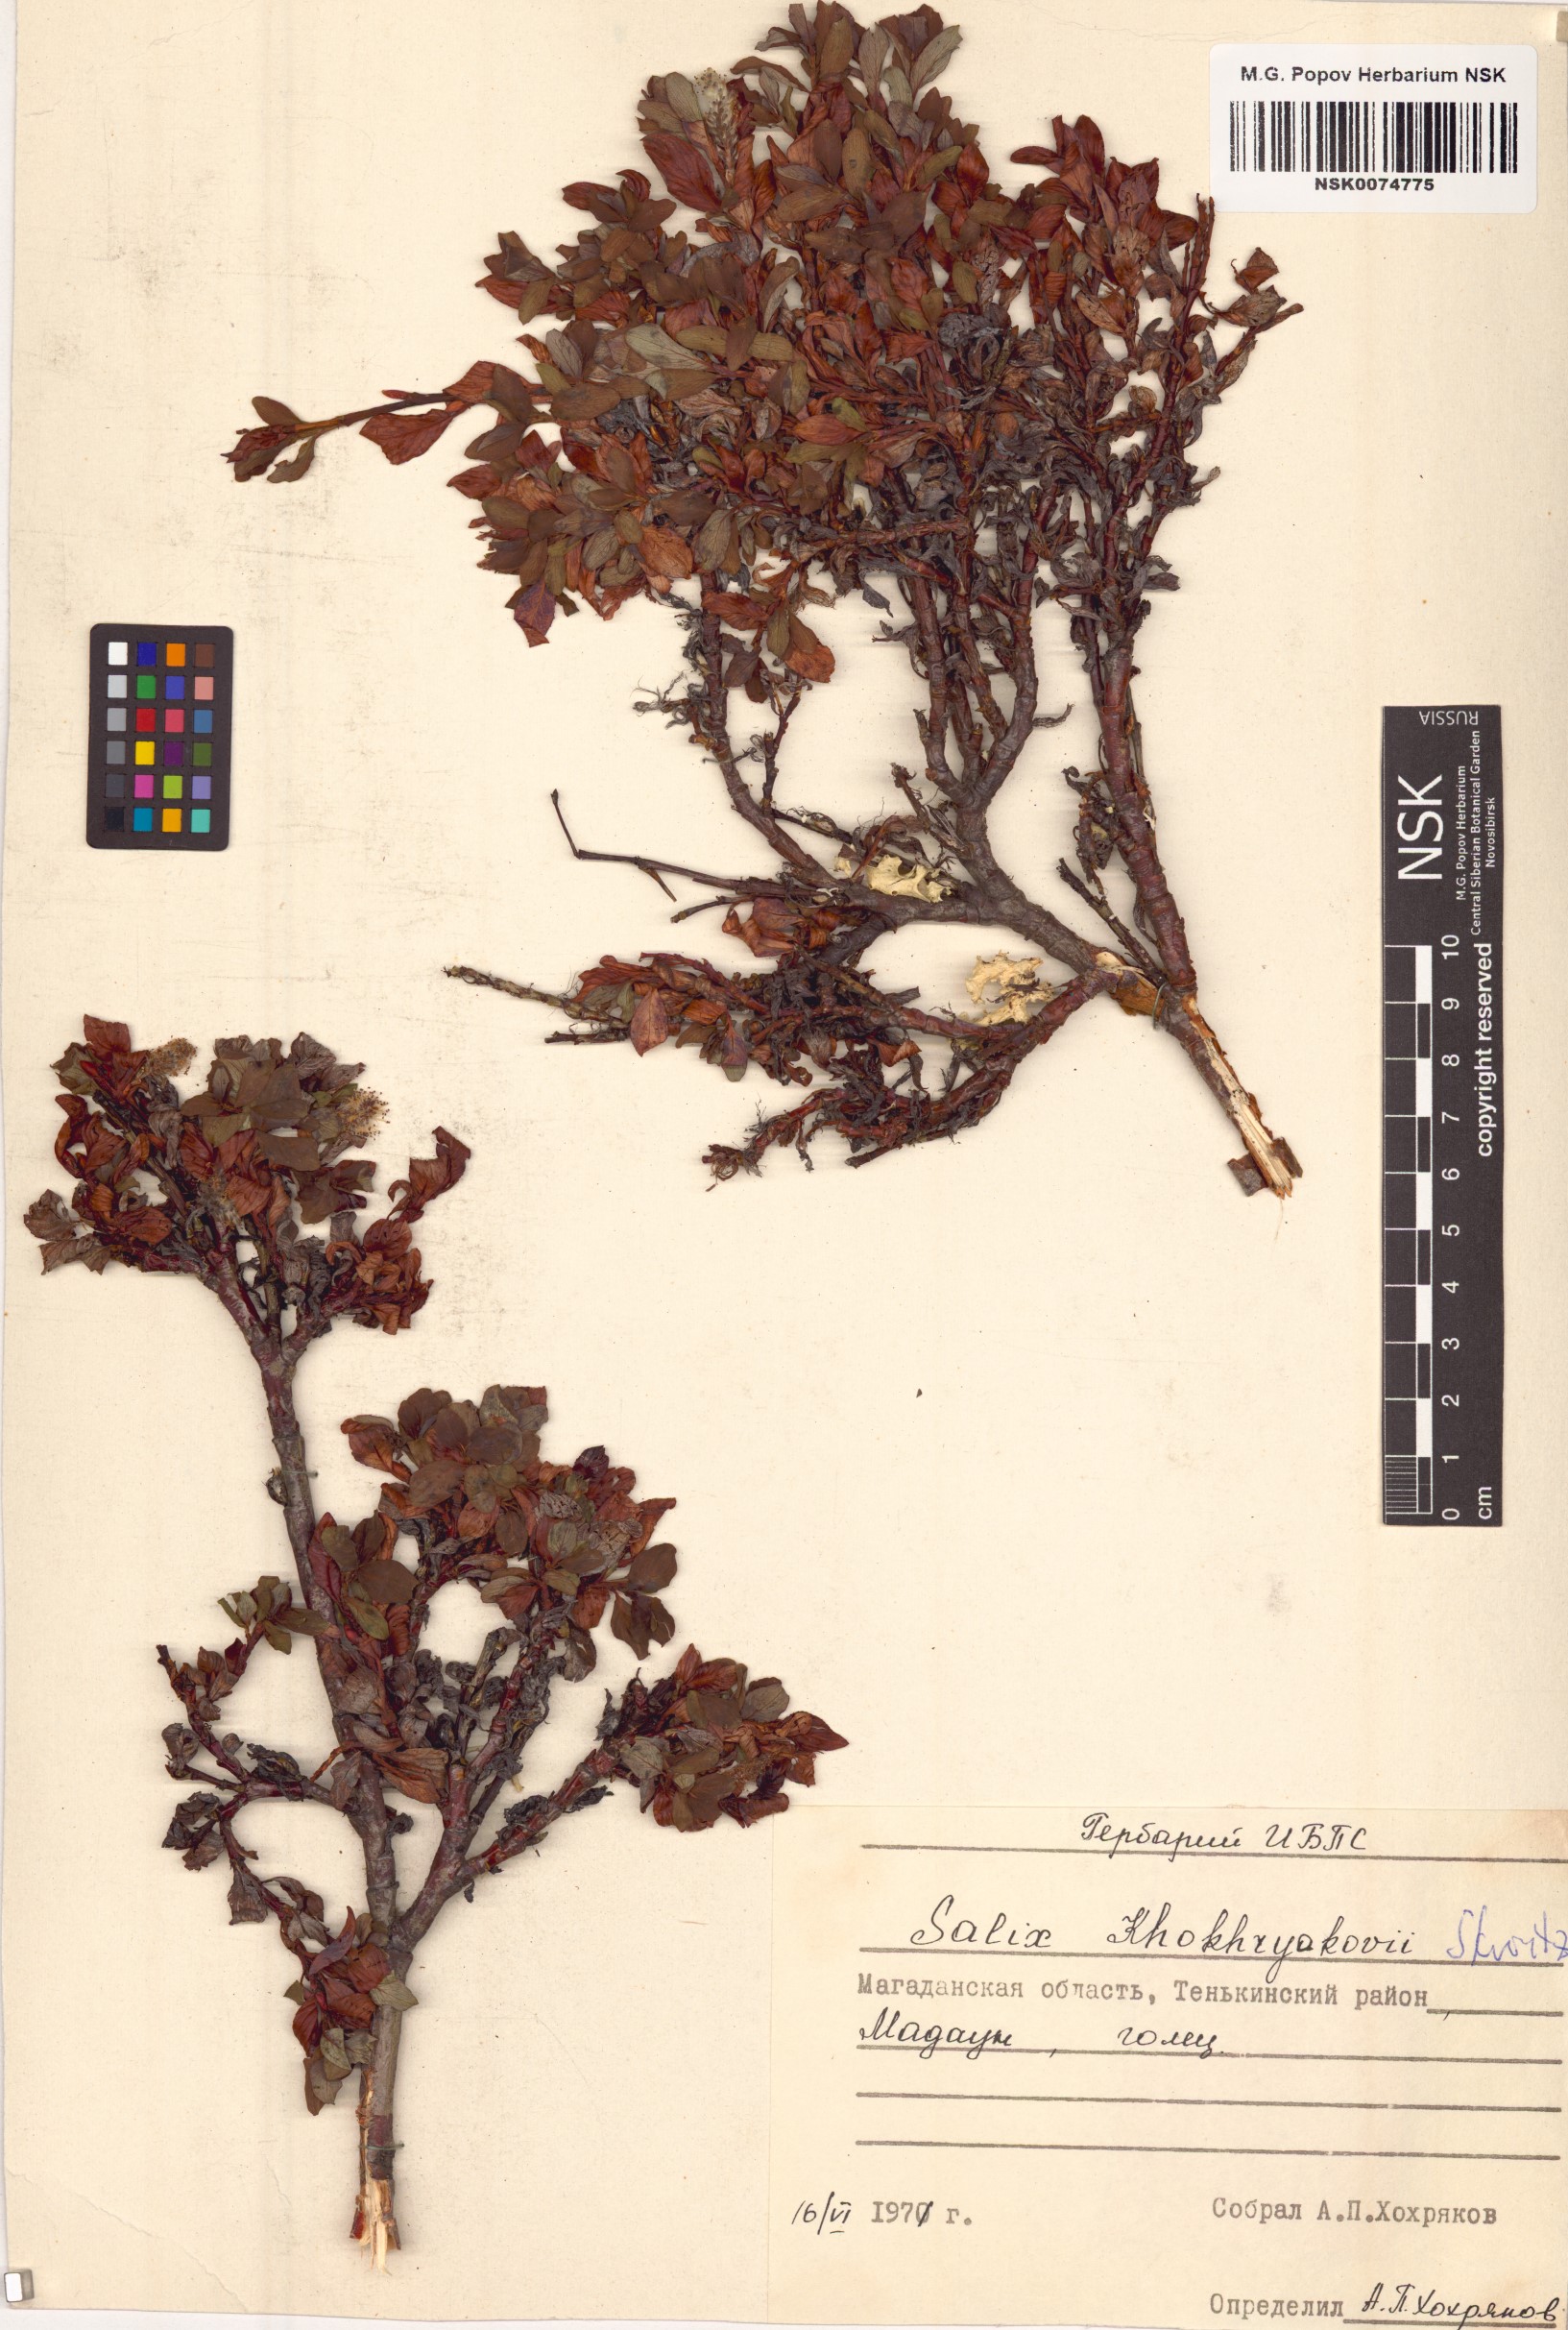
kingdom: Plantae
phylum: Tracheophyta
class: Magnoliopsida
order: Malpighiales
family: Salicaceae
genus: Salix
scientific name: Salix khokhriakovii
